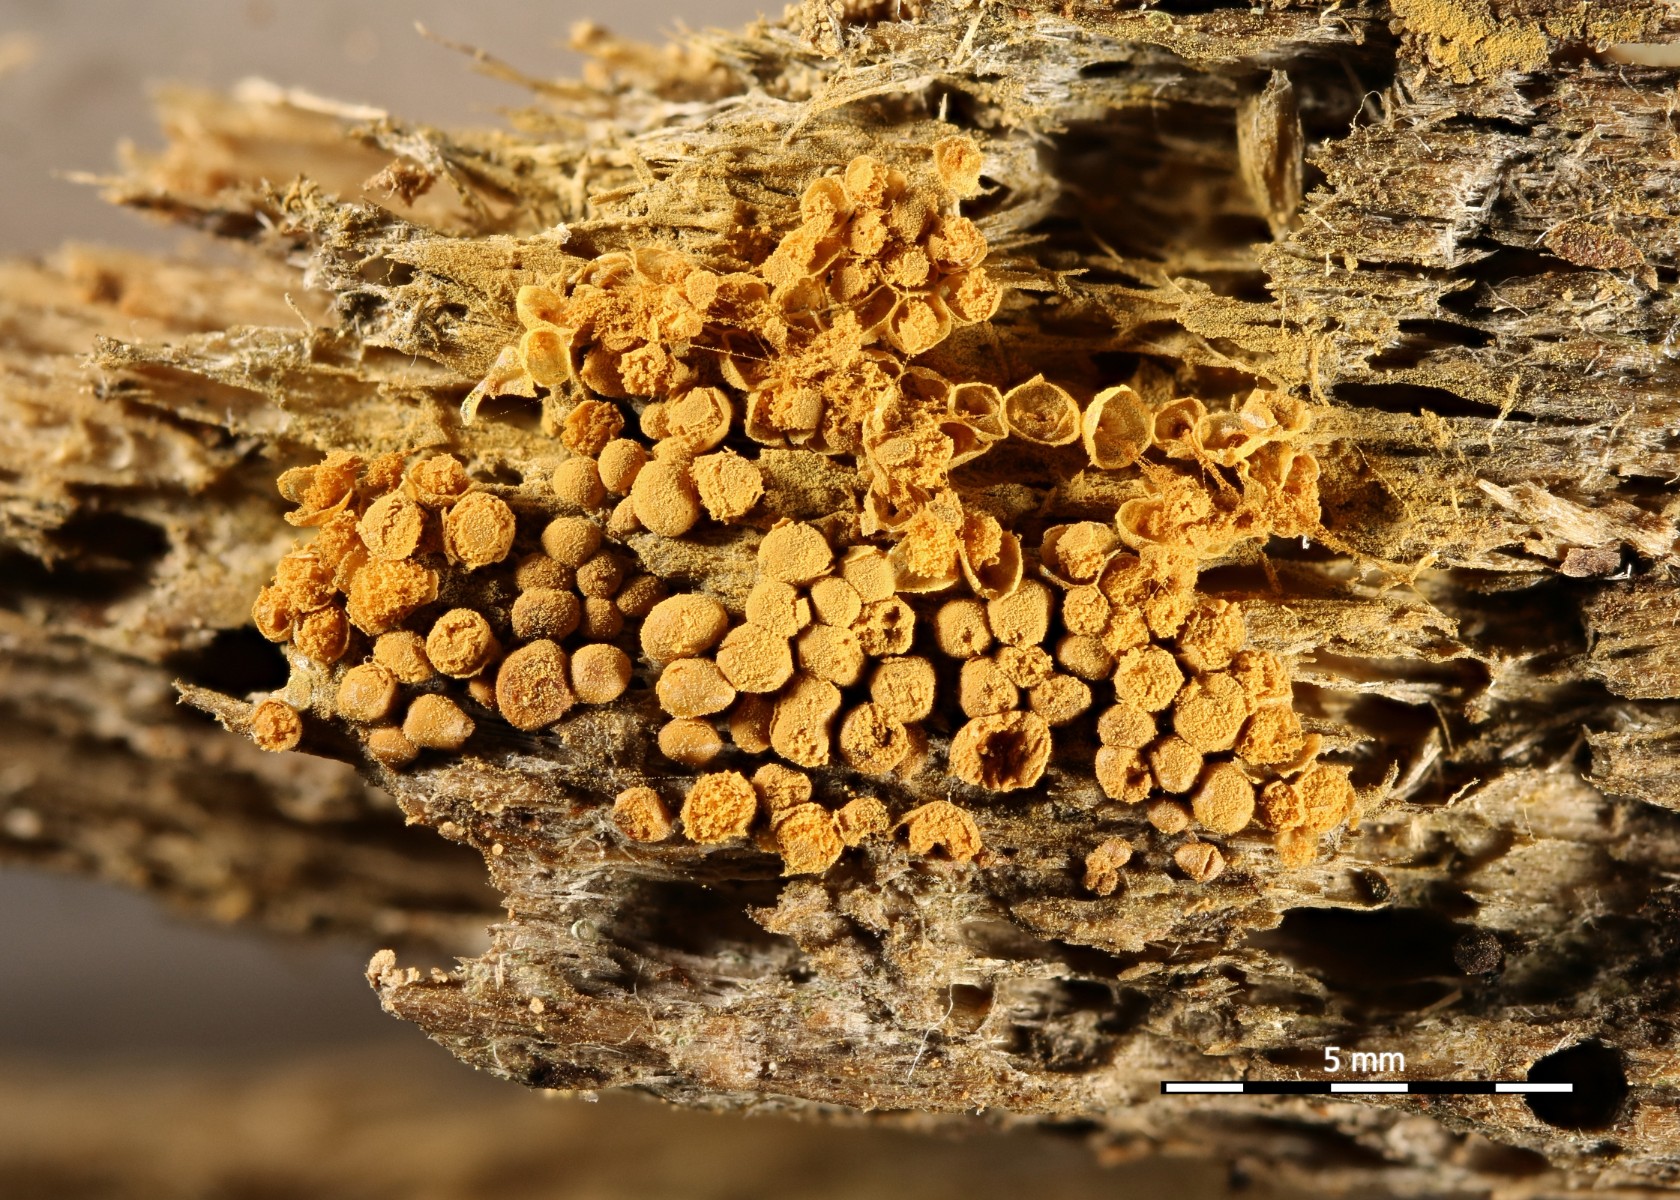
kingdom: Protozoa
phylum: Mycetozoa
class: Myxomycetes
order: Trichiales
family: Arcyriaceae
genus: Hemitrichia
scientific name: Hemitrichia abietina
